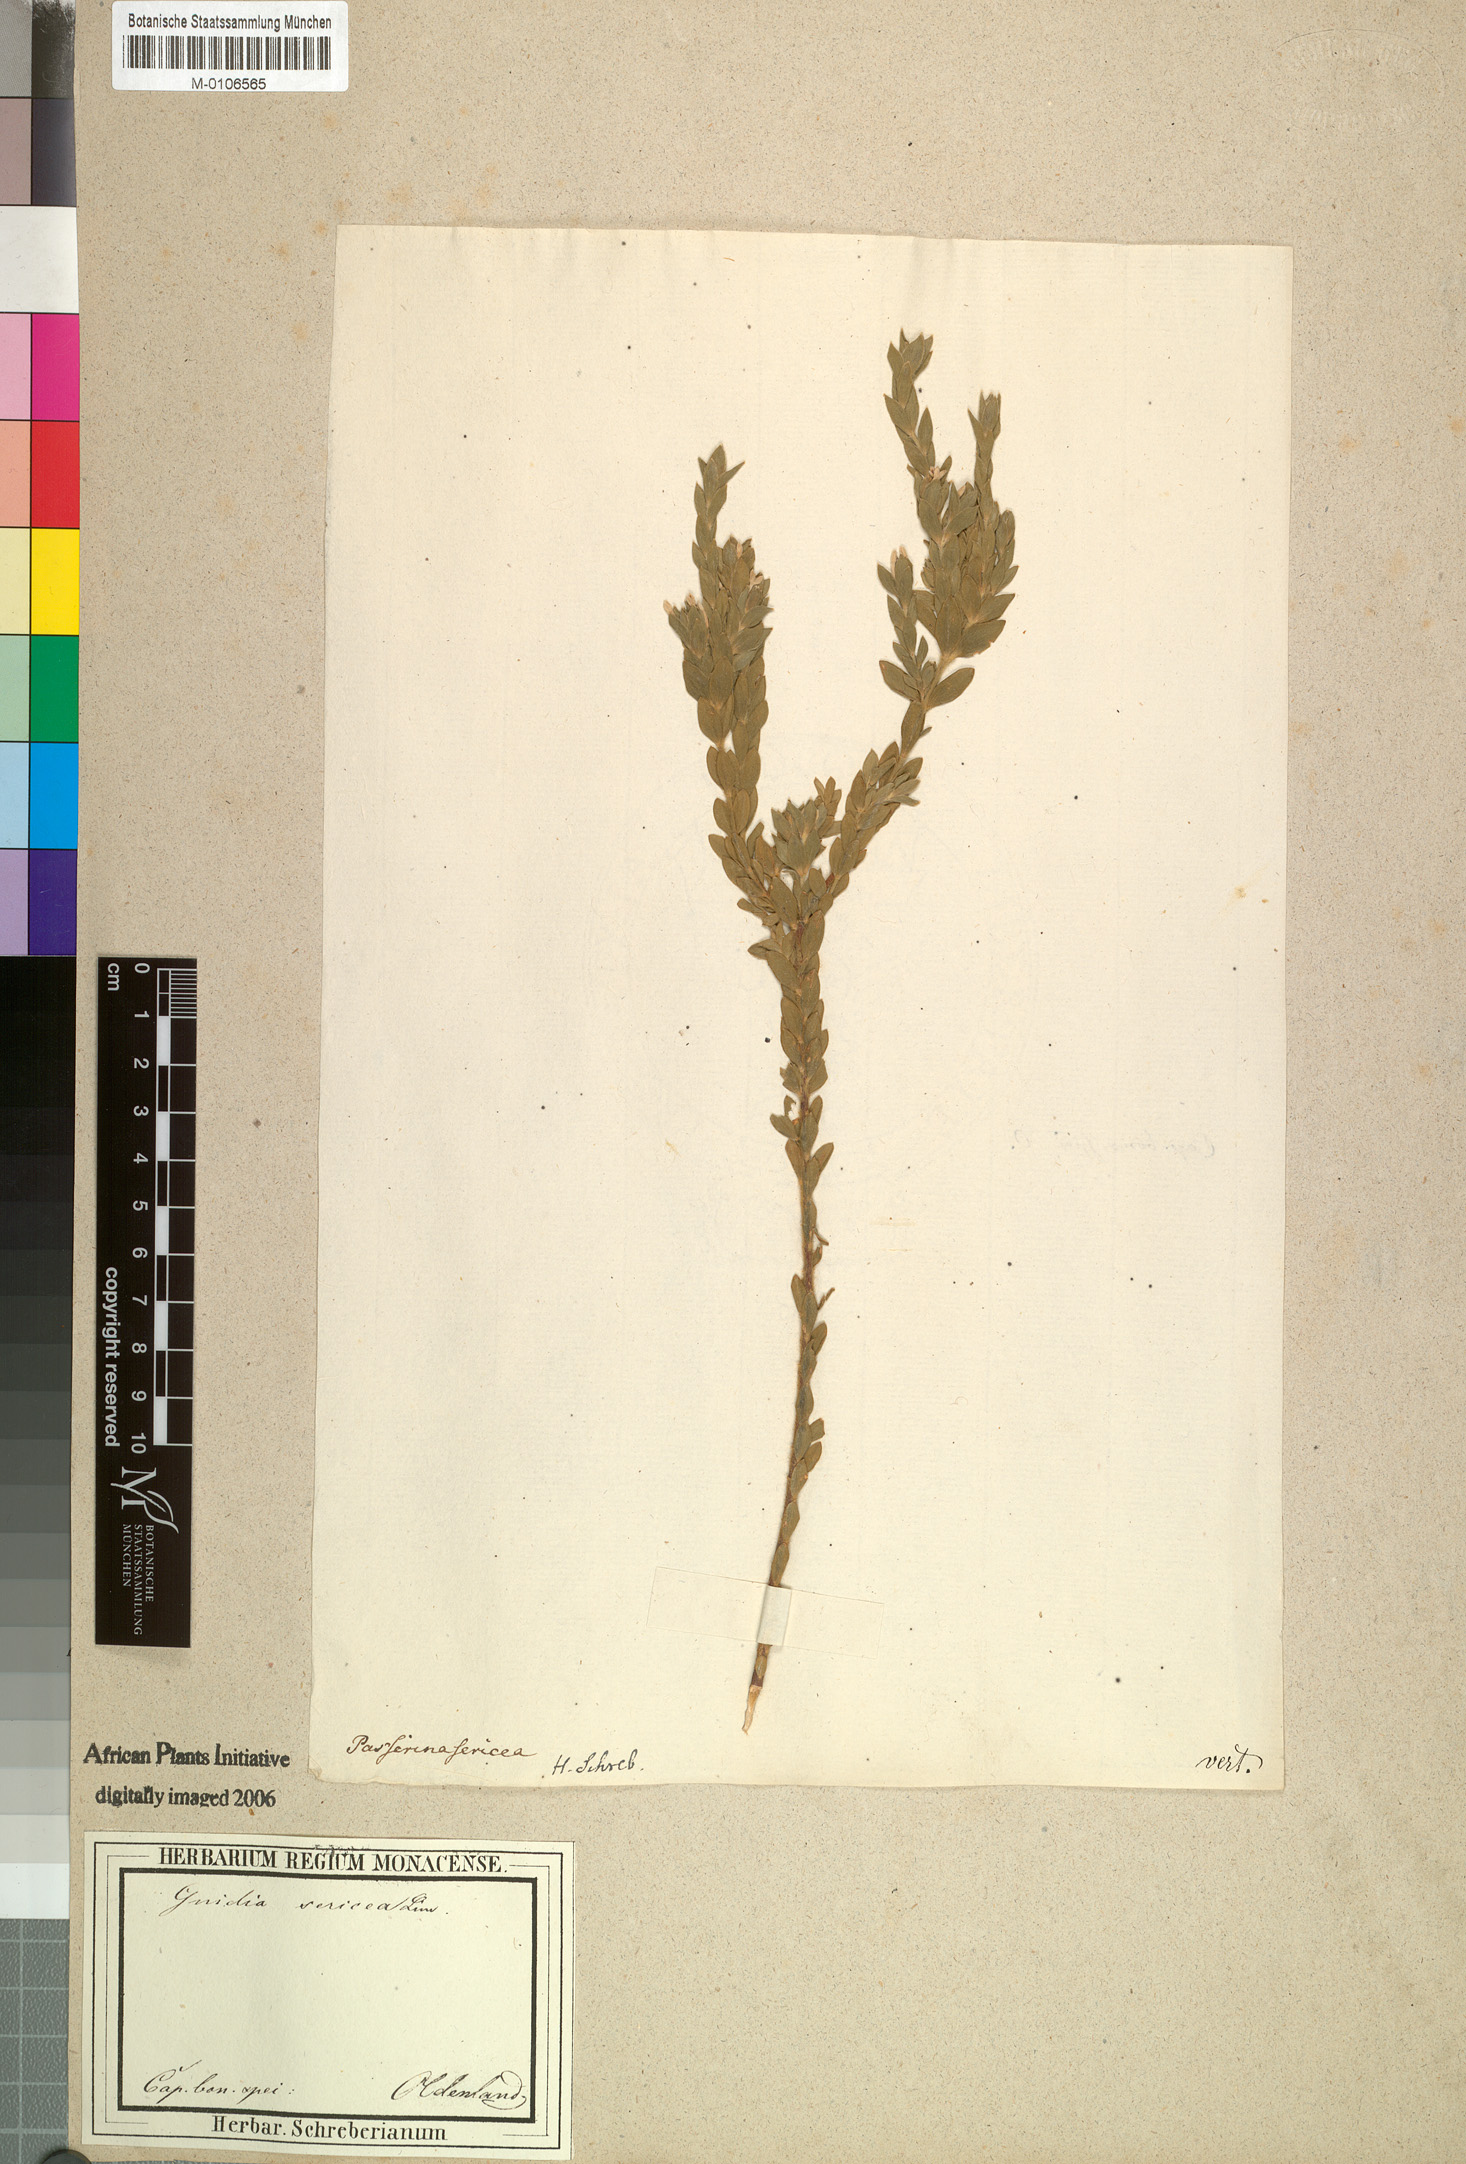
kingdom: Plantae
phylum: Tracheophyta
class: Magnoliopsida
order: Malvales
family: Thymelaeaceae
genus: Gnidia
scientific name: Gnidia sericea
